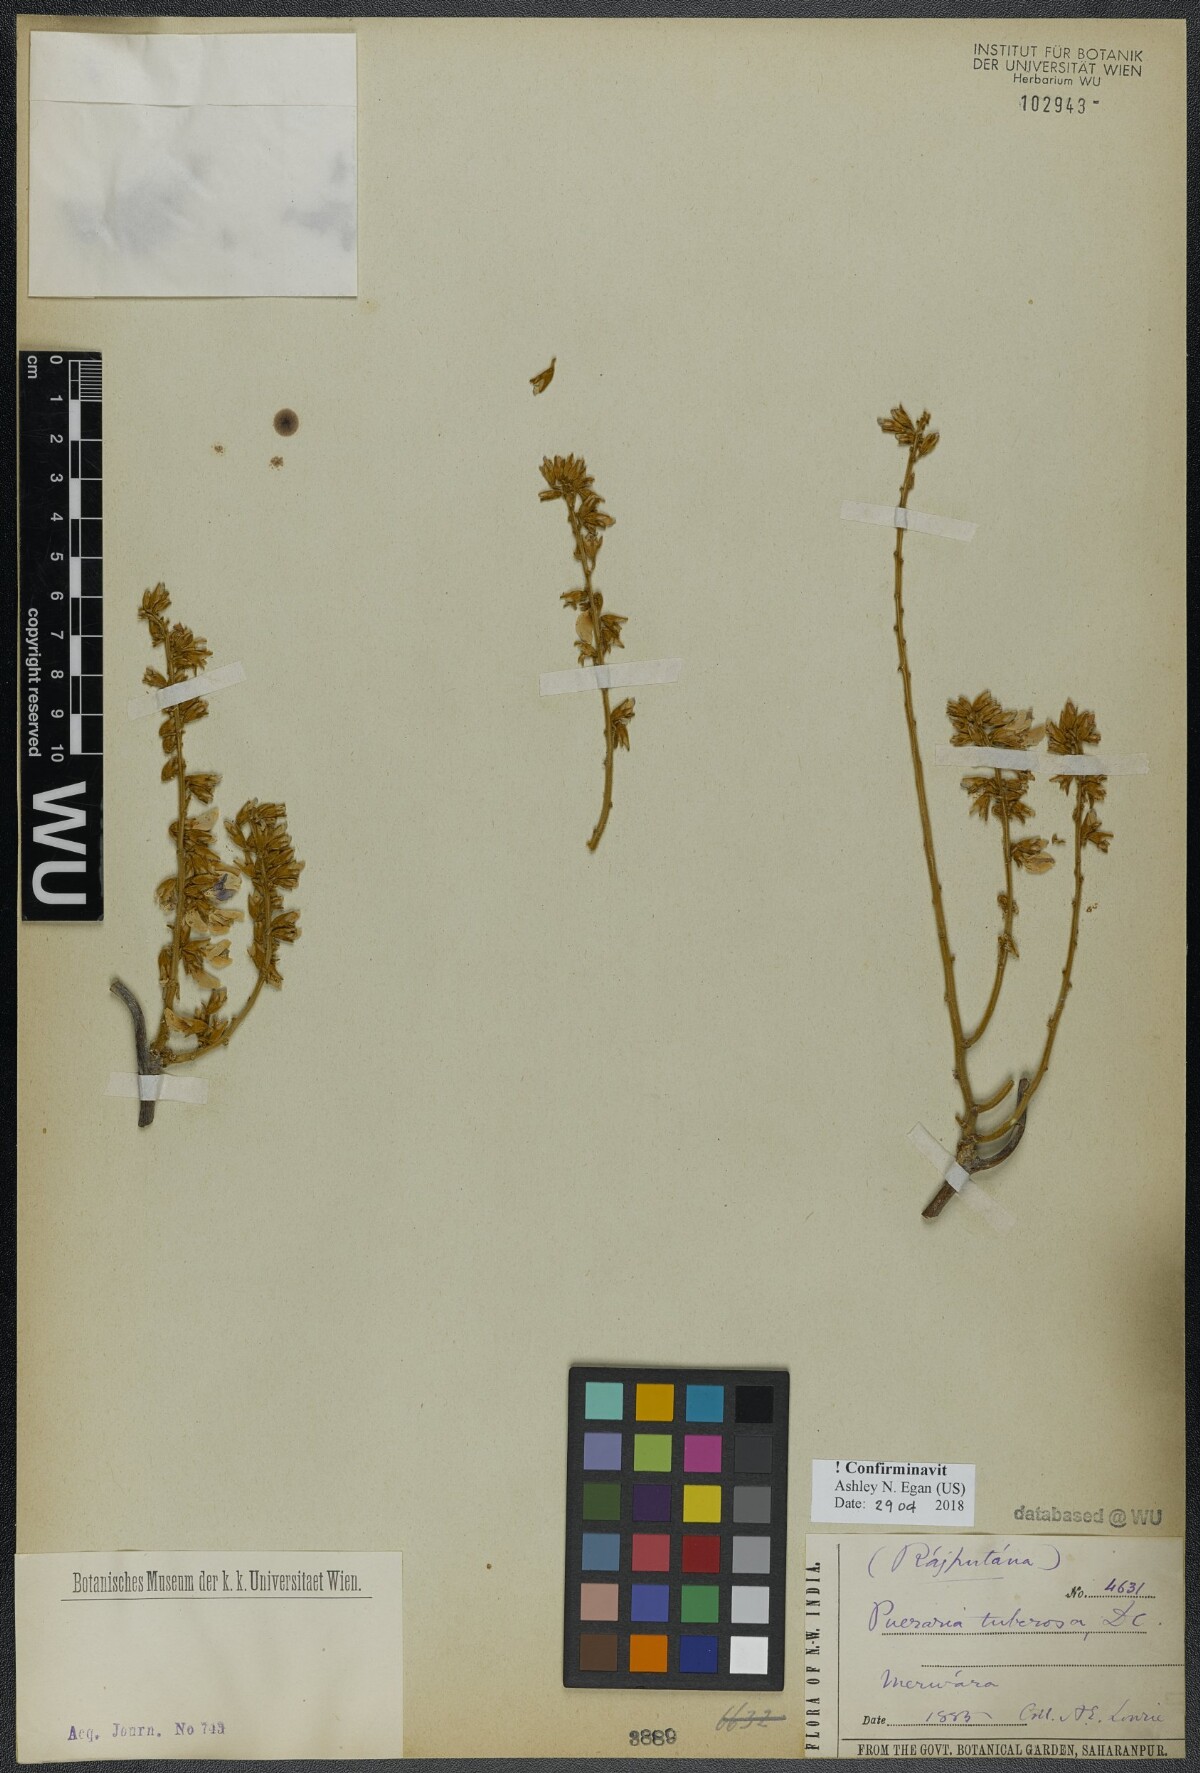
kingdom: Plantae
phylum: Tracheophyta
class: Magnoliopsida
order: Fabales
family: Fabaceae
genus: Pueraria
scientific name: Pueraria tuberosa
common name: Nepalese kudzu
